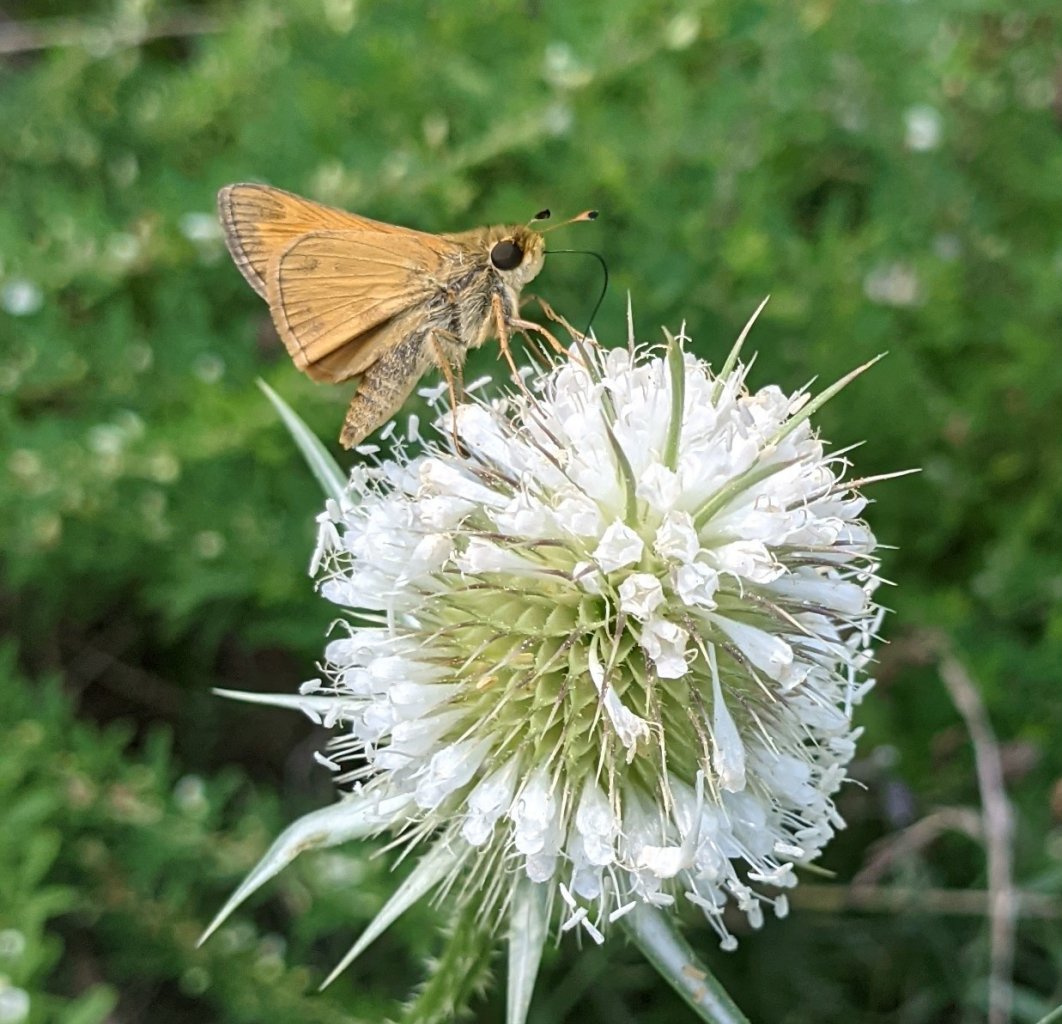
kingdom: Animalia
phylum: Arthropoda
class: Insecta
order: Lepidoptera
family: Hesperiidae
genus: Atalopedes
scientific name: Atalopedes campestris
